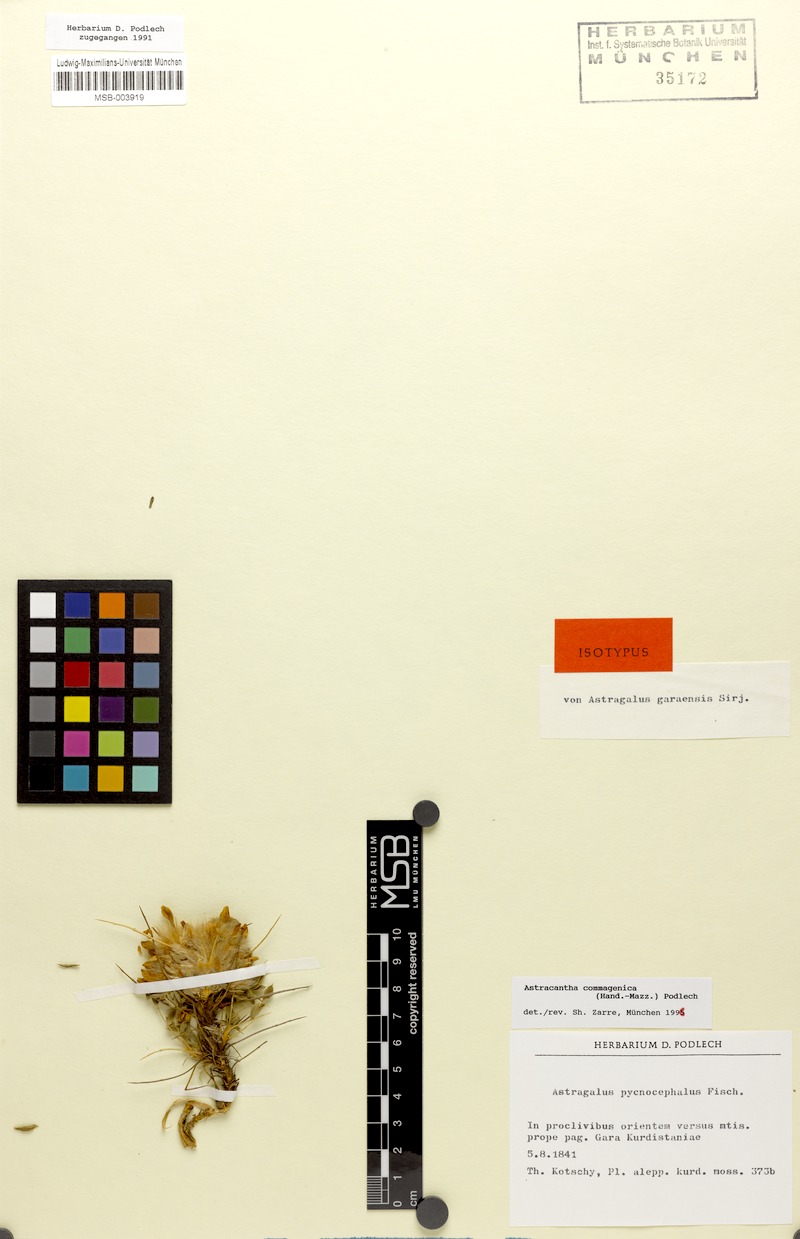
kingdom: Plantae
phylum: Tracheophyta
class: Magnoliopsida
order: Fabales
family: Fabaceae
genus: Astragalus
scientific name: Astragalus commagenicus
